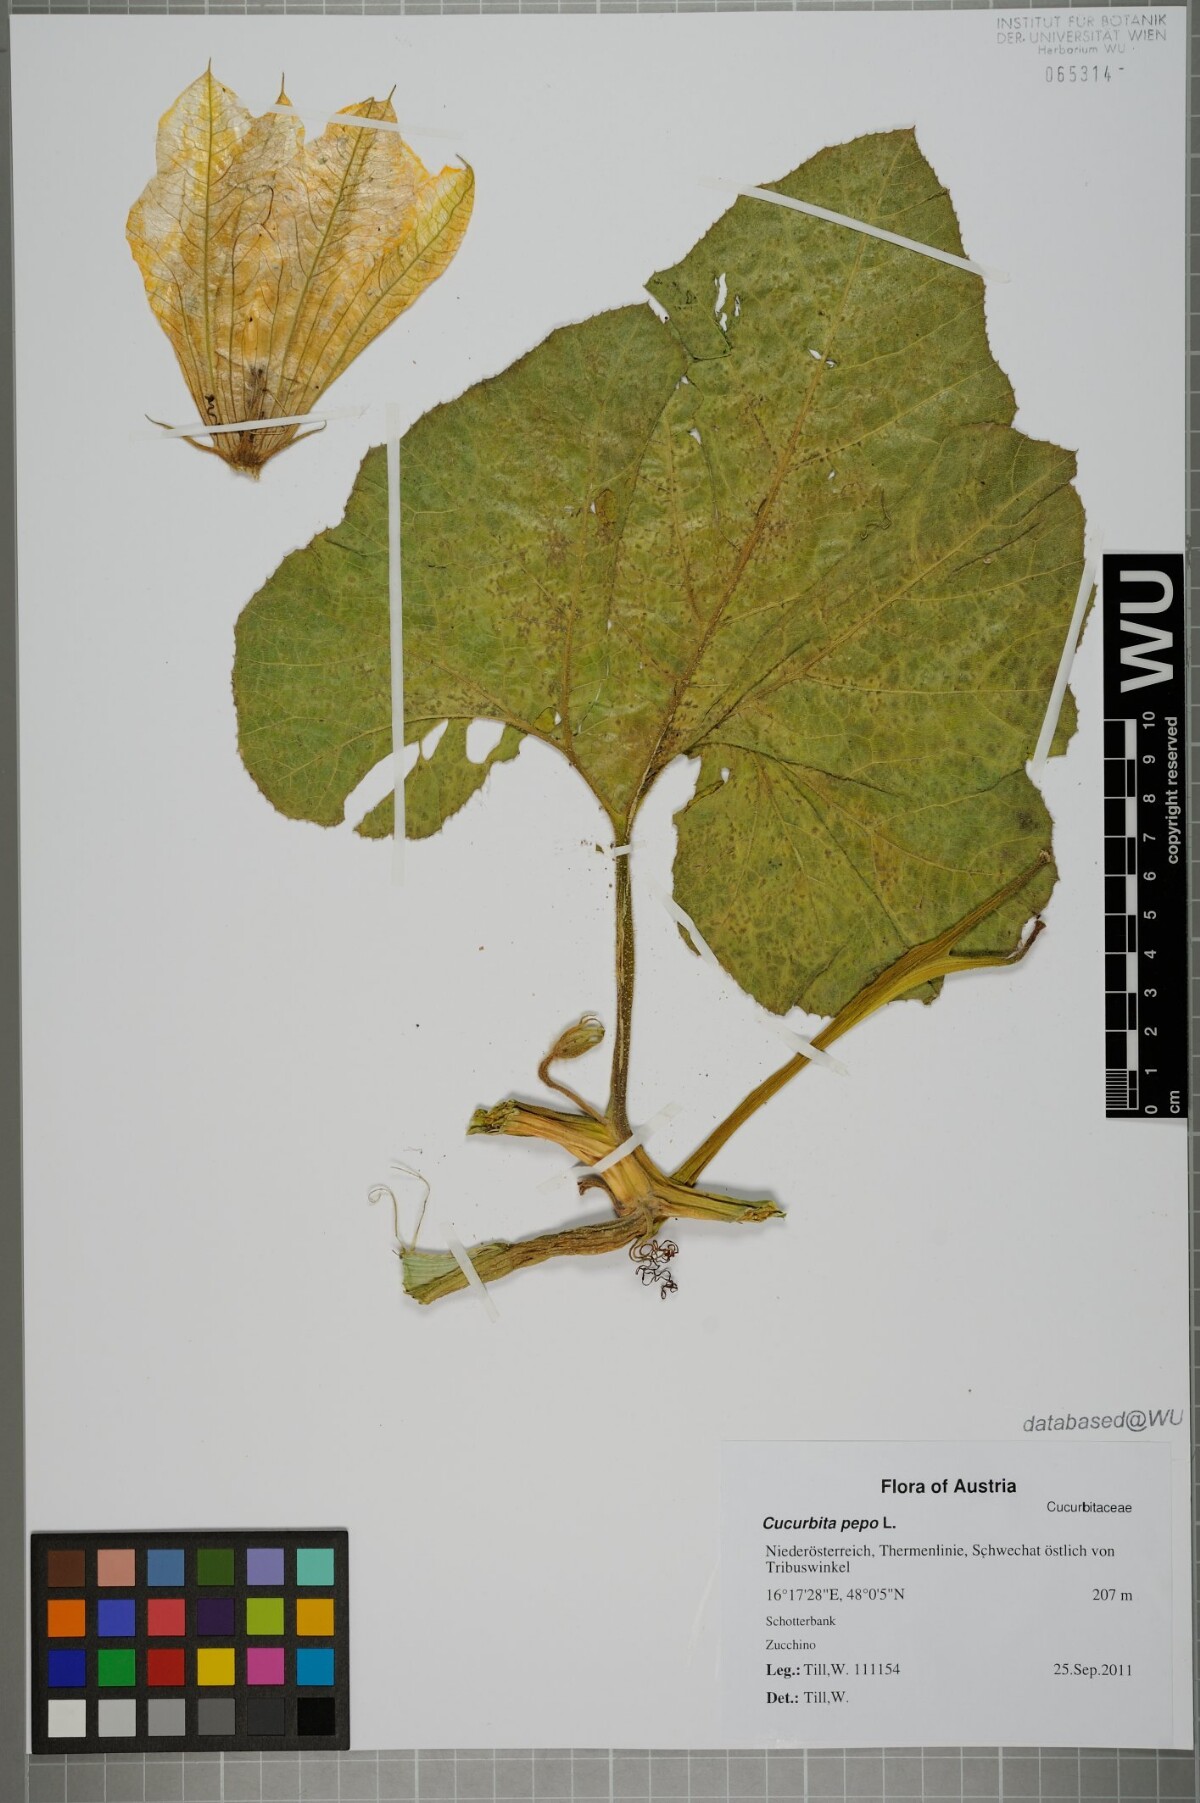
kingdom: Plantae
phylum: Tracheophyta
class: Magnoliopsida
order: Cucurbitales
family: Cucurbitaceae
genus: Cucurbita
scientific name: Cucurbita pepo
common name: Marrow
